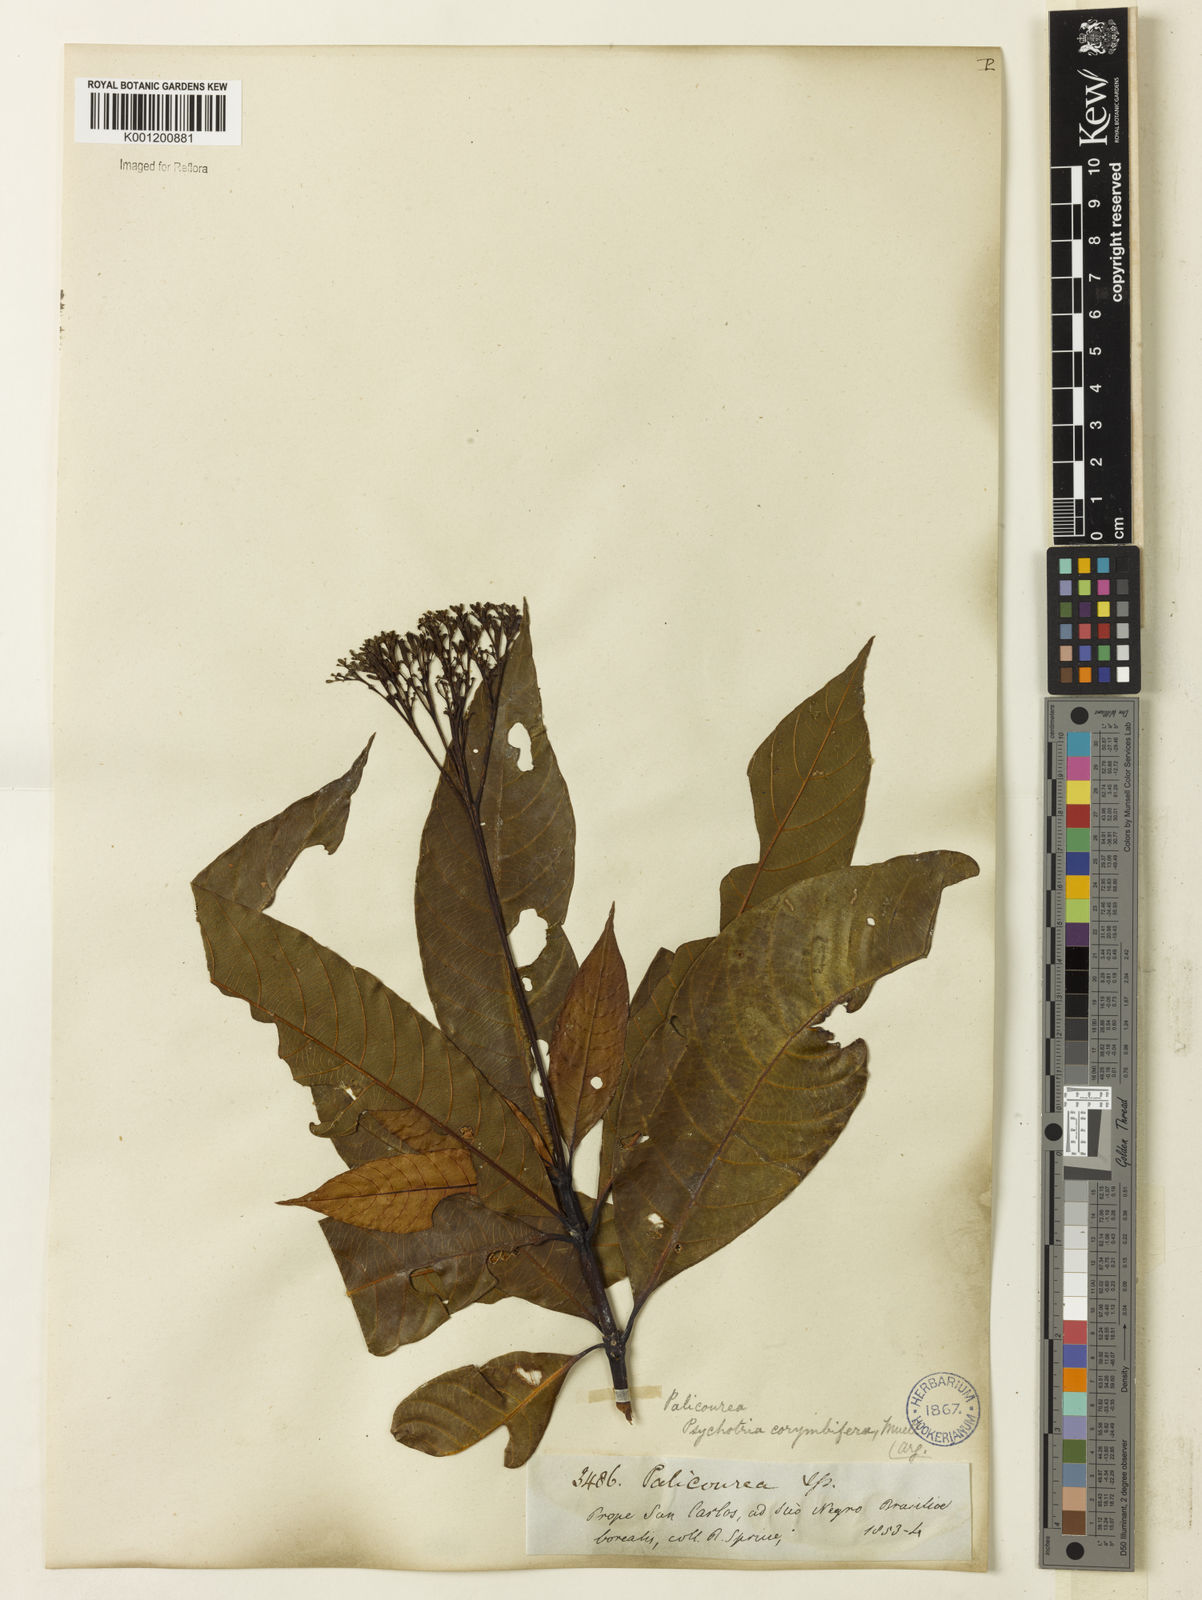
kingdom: Plantae
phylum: Tracheophyta
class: Magnoliopsida
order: Gentianales
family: Rubiaceae
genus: Palicourea
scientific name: Palicourea
